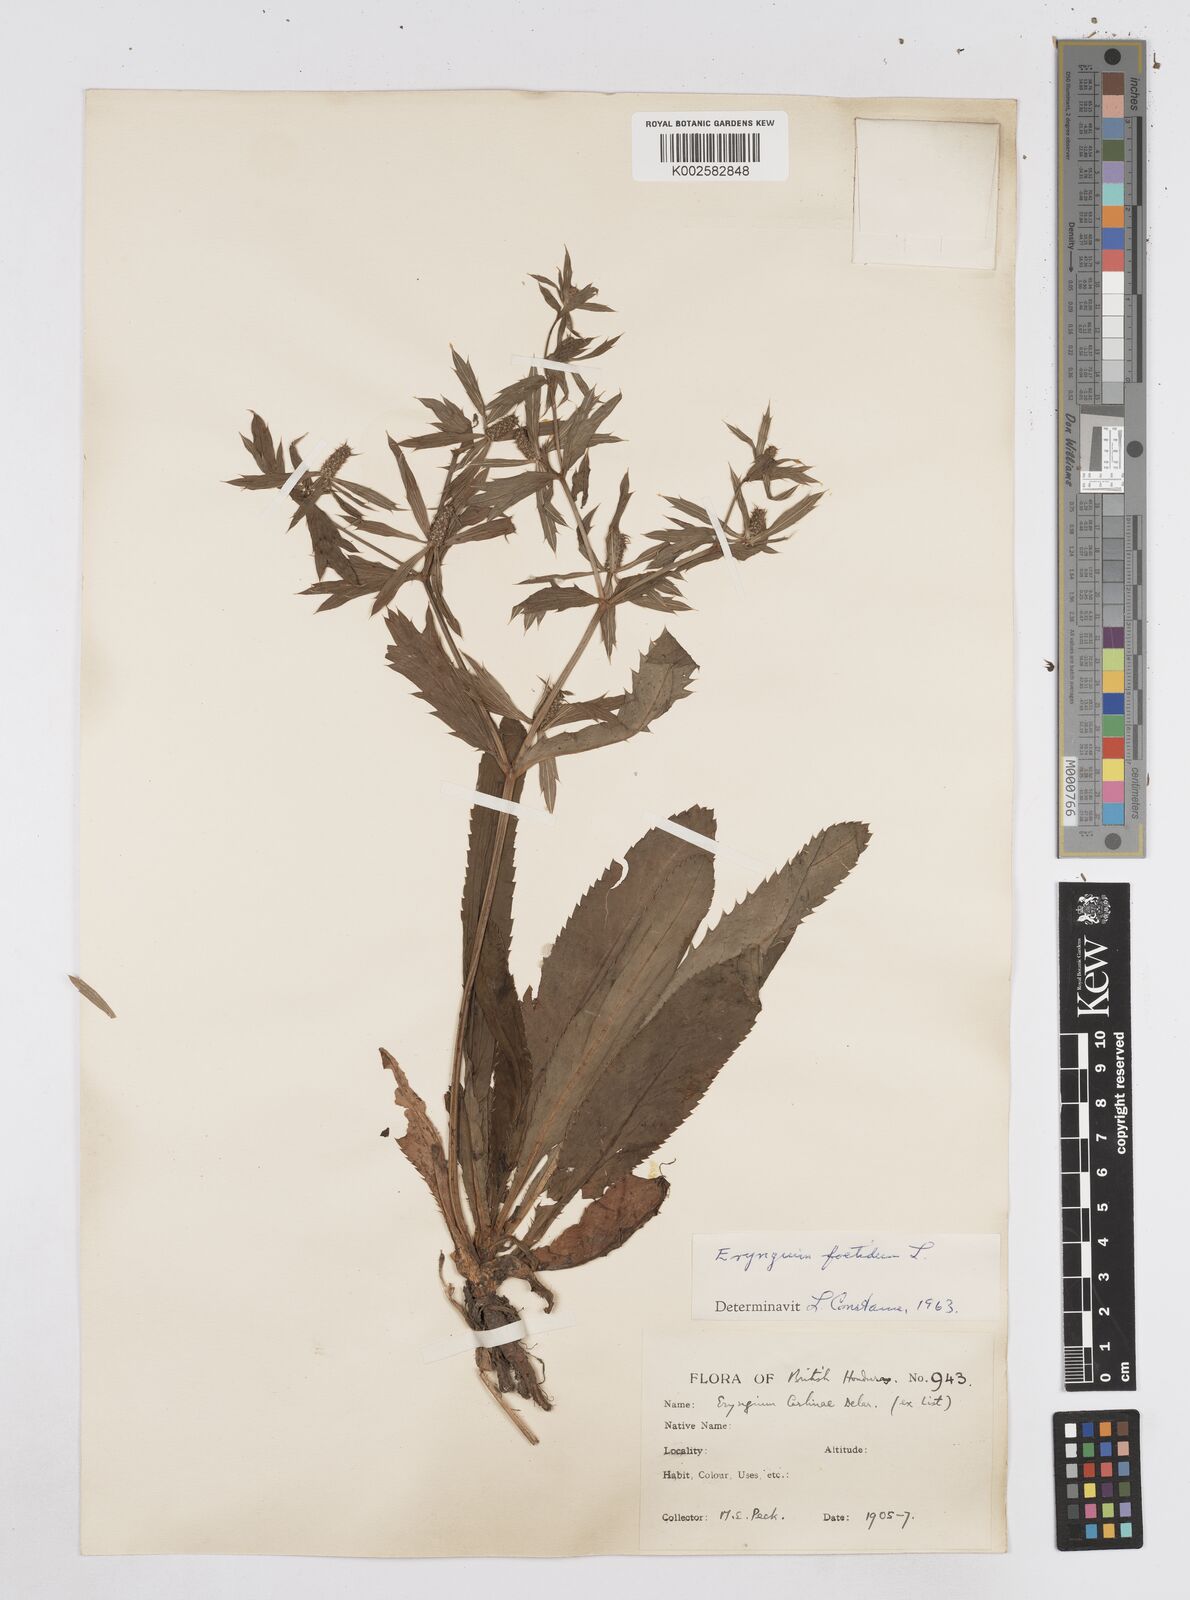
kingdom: Plantae
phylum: Tracheophyta
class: Magnoliopsida
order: Apiales
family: Apiaceae
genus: Eryngium
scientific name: Eryngium foetidum
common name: Fitweed
